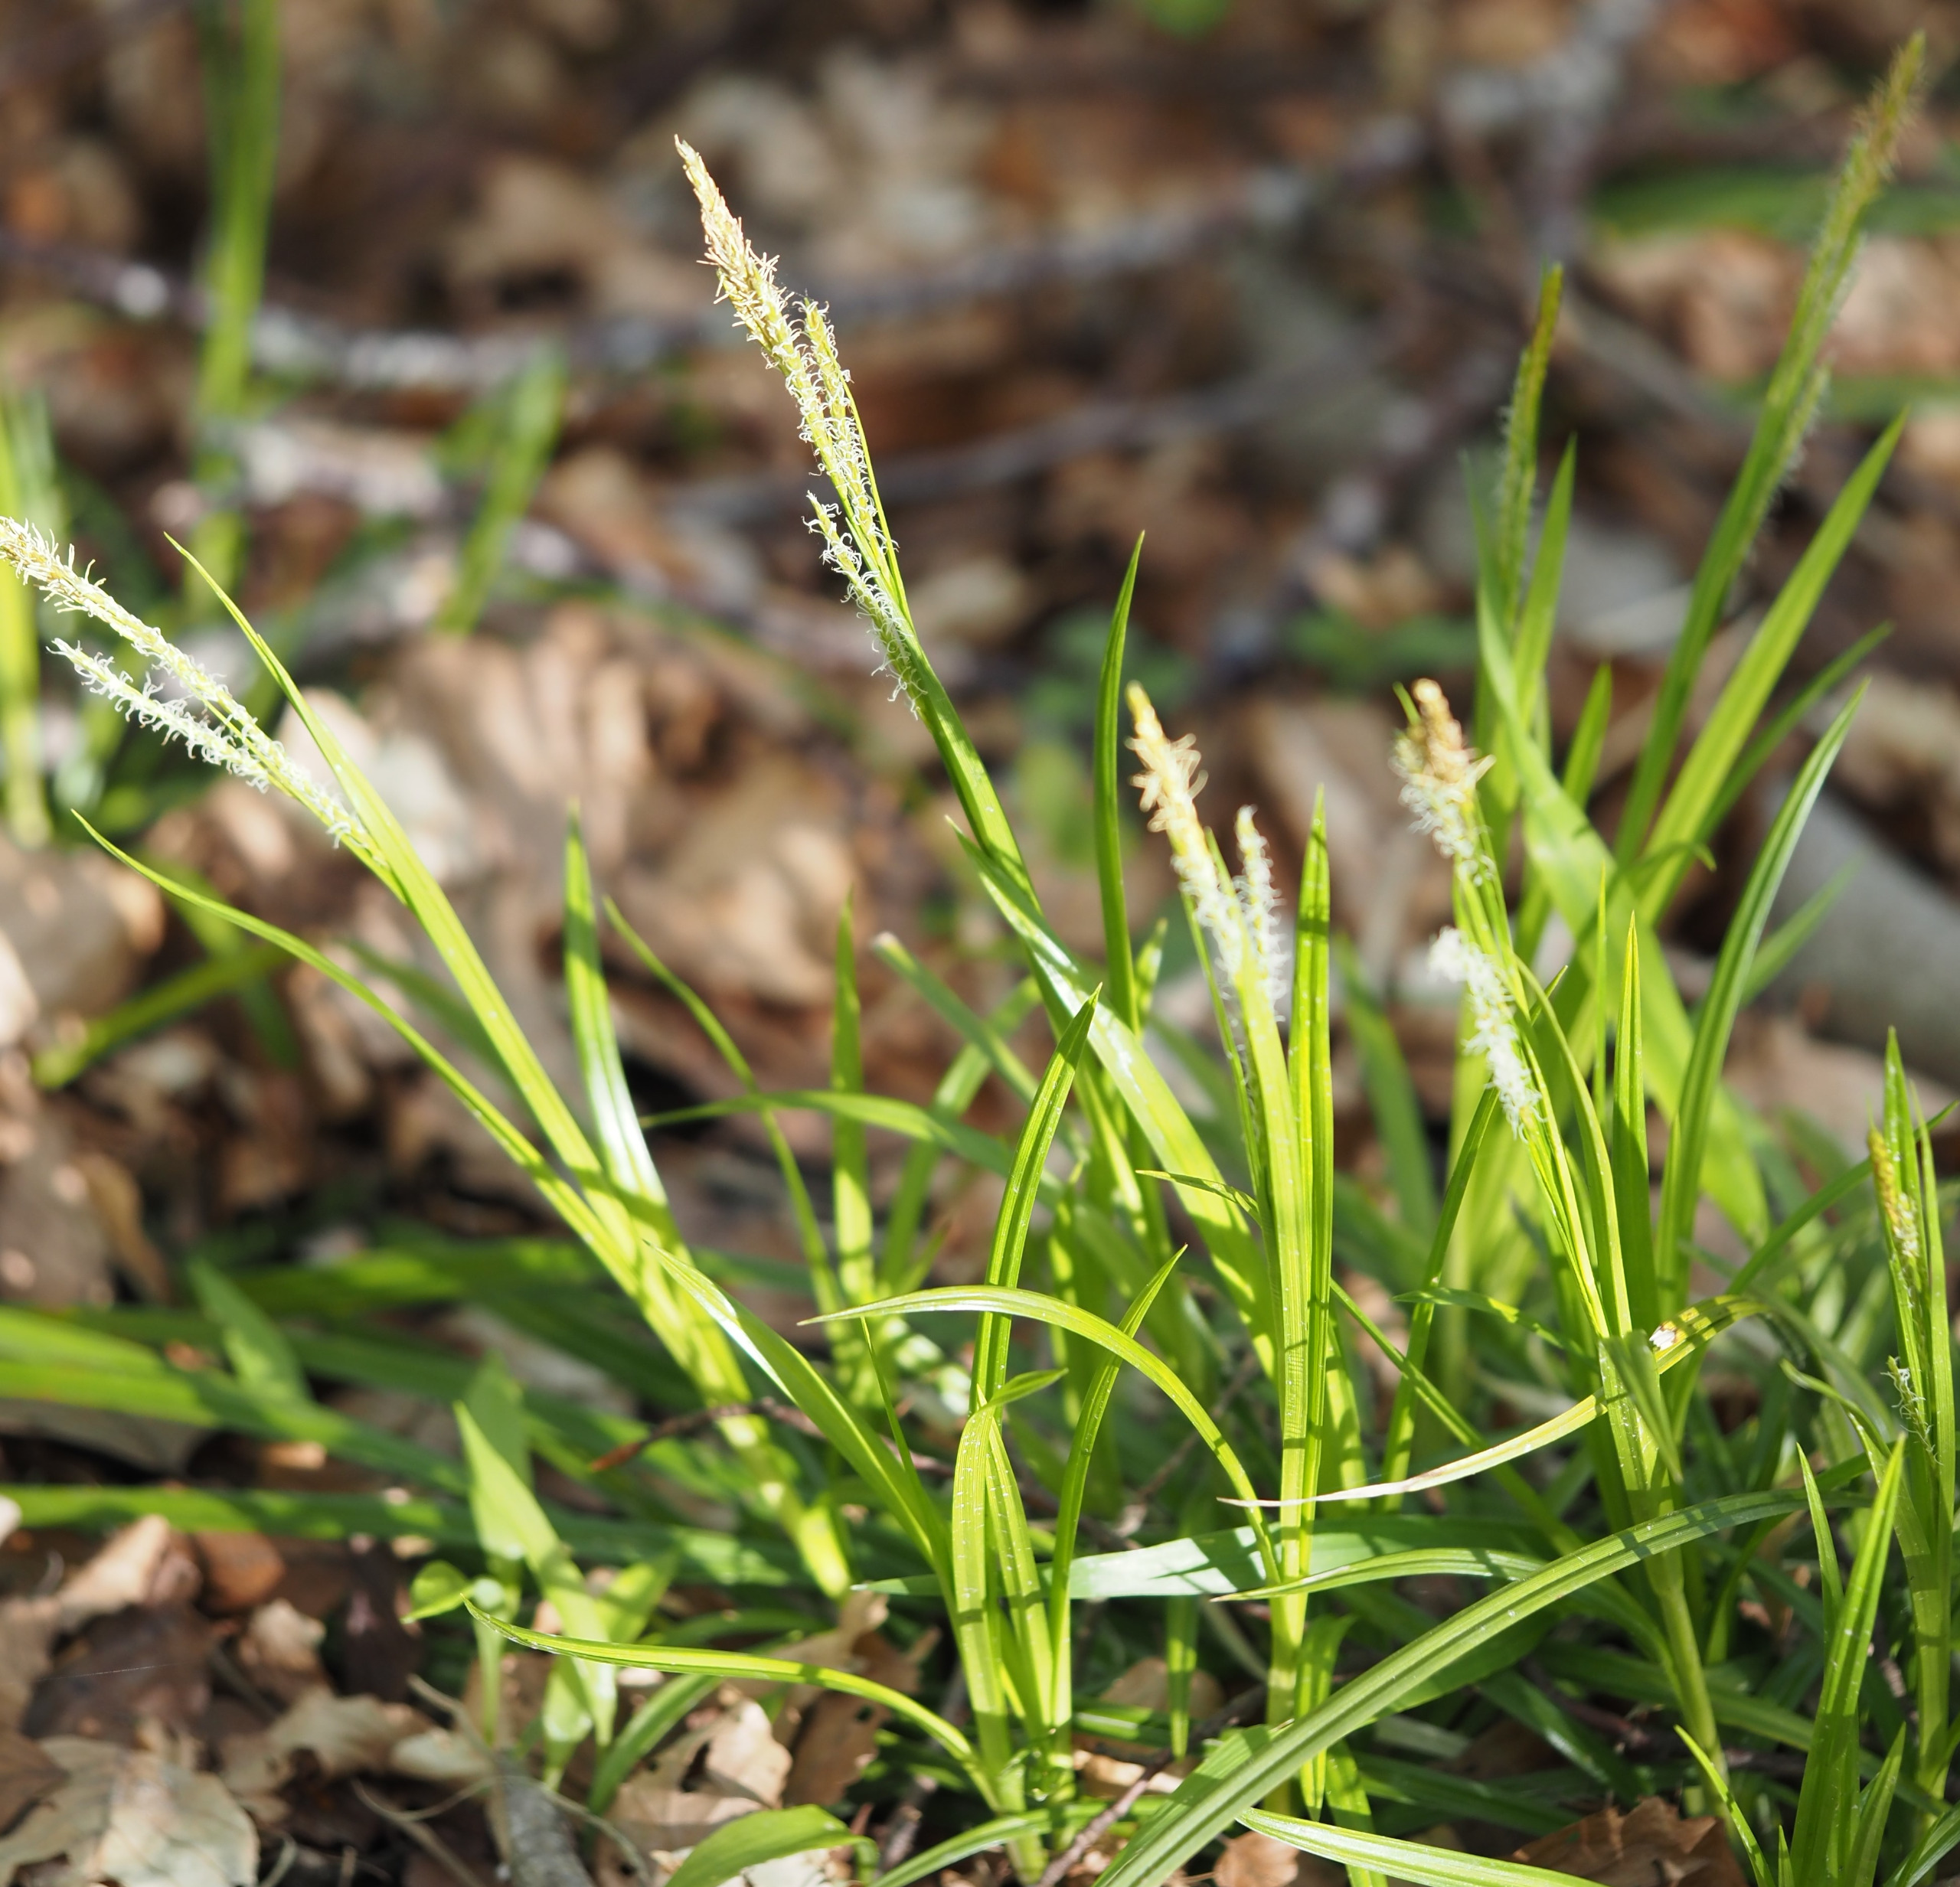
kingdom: Plantae
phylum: Tracheophyta
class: Liliopsida
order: Poales
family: Cyperaceae
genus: Carex
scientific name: Carex sylvatica
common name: Skov-star
